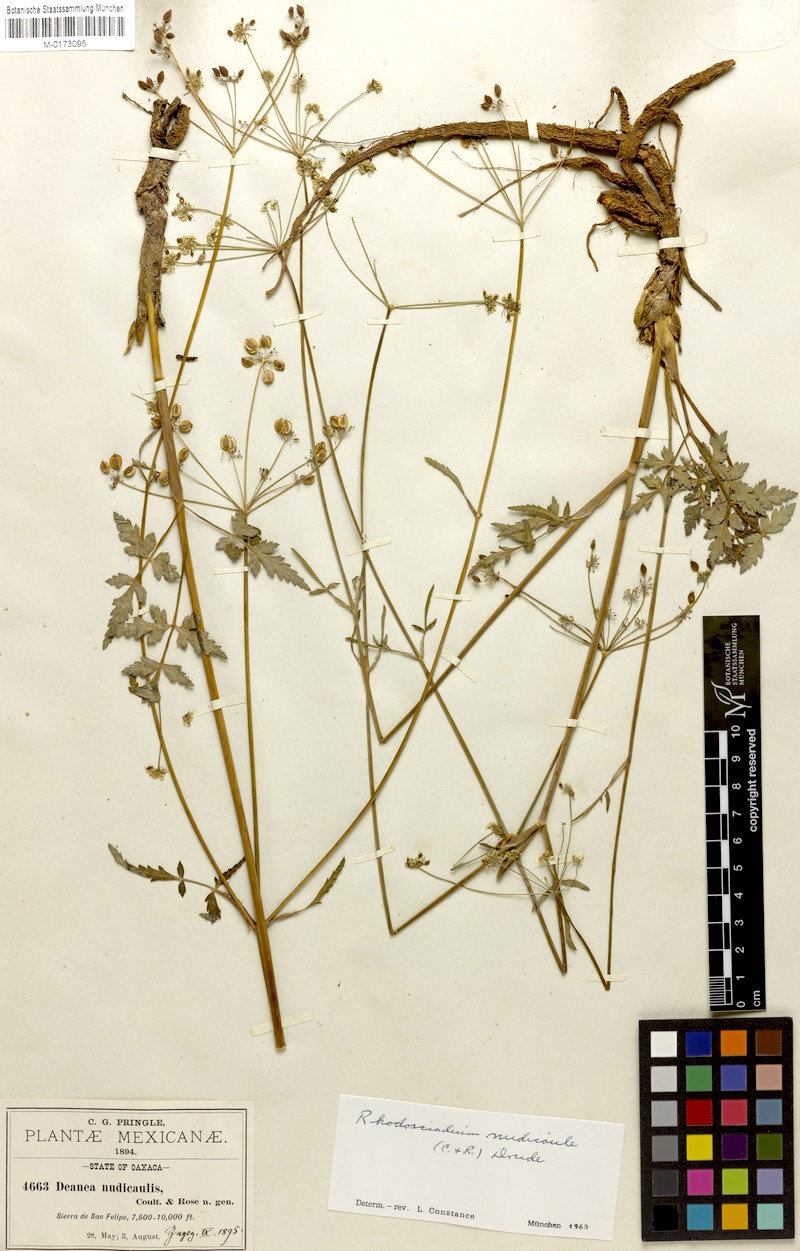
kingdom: Plantae
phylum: Tracheophyta
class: Magnoliopsida
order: Apiales
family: Apiaceae
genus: Rhodosciadium
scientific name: Rhodosciadium nudicaule
